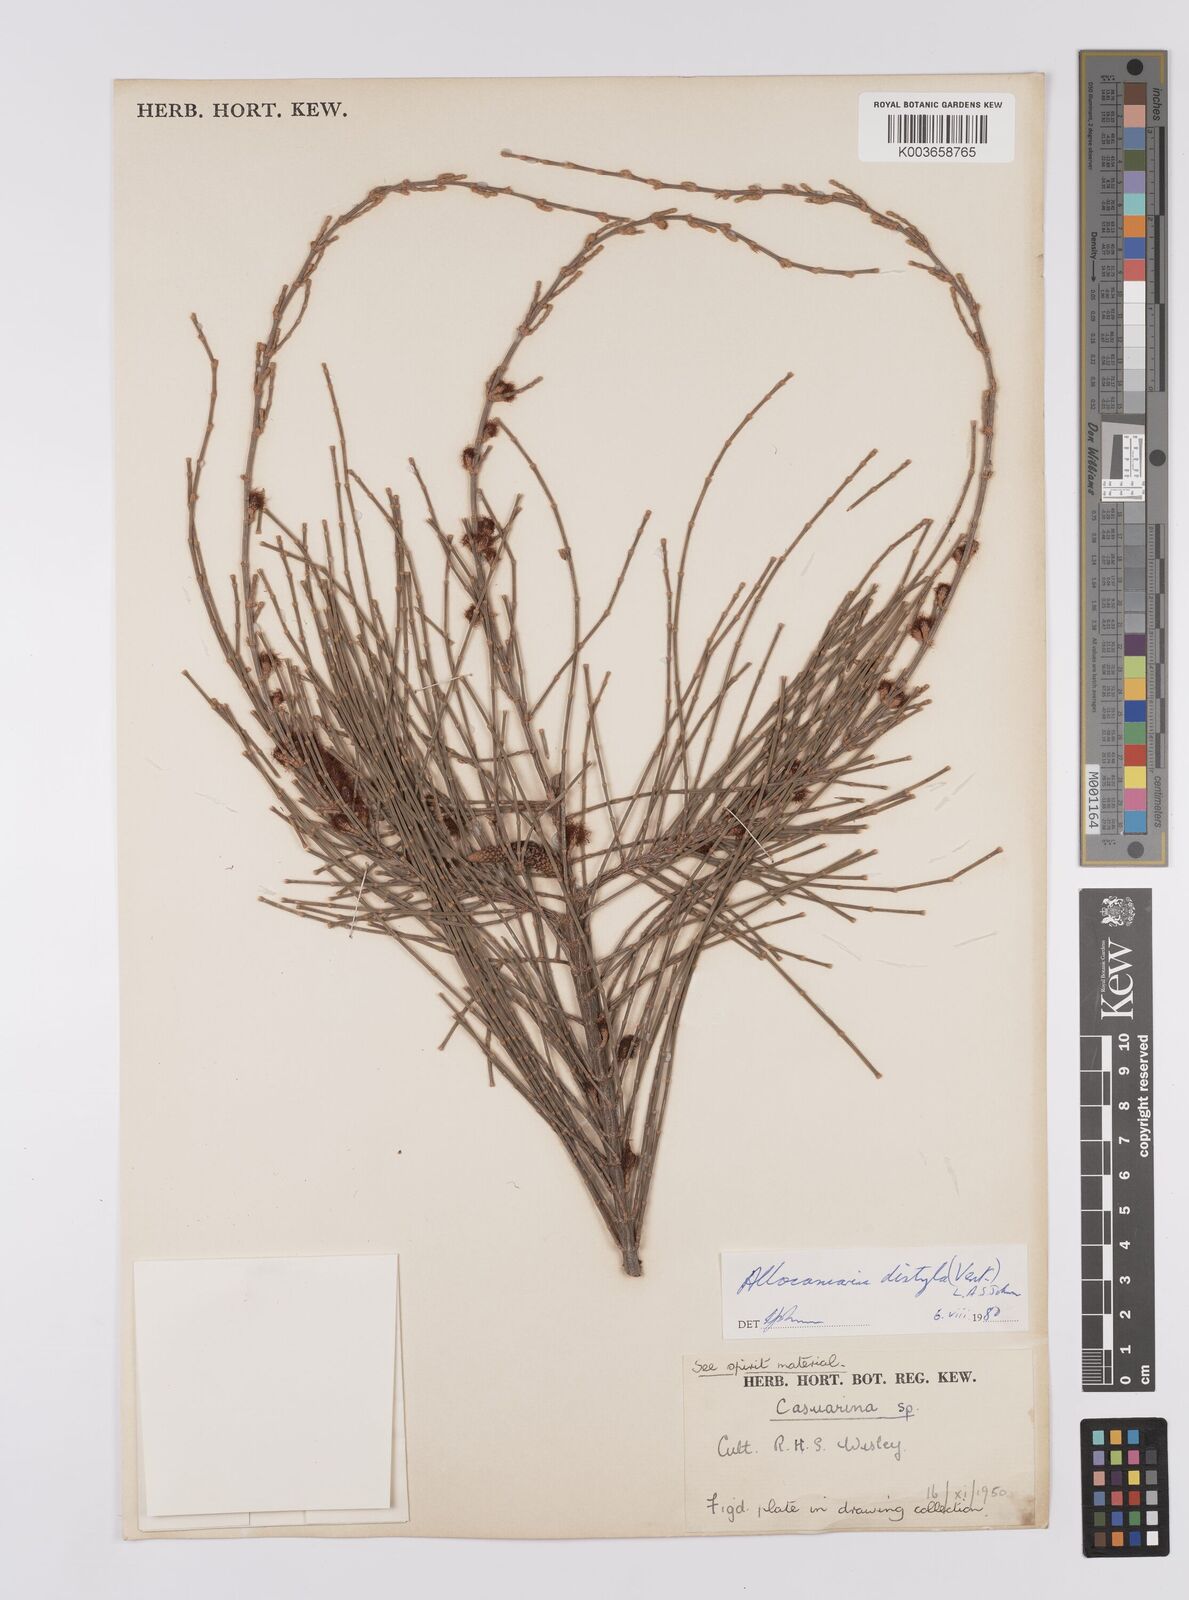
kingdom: Plantae
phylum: Tracheophyta
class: Magnoliopsida
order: Fagales
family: Casuarinaceae
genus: Allocasuarina
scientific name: Allocasuarina distyla
